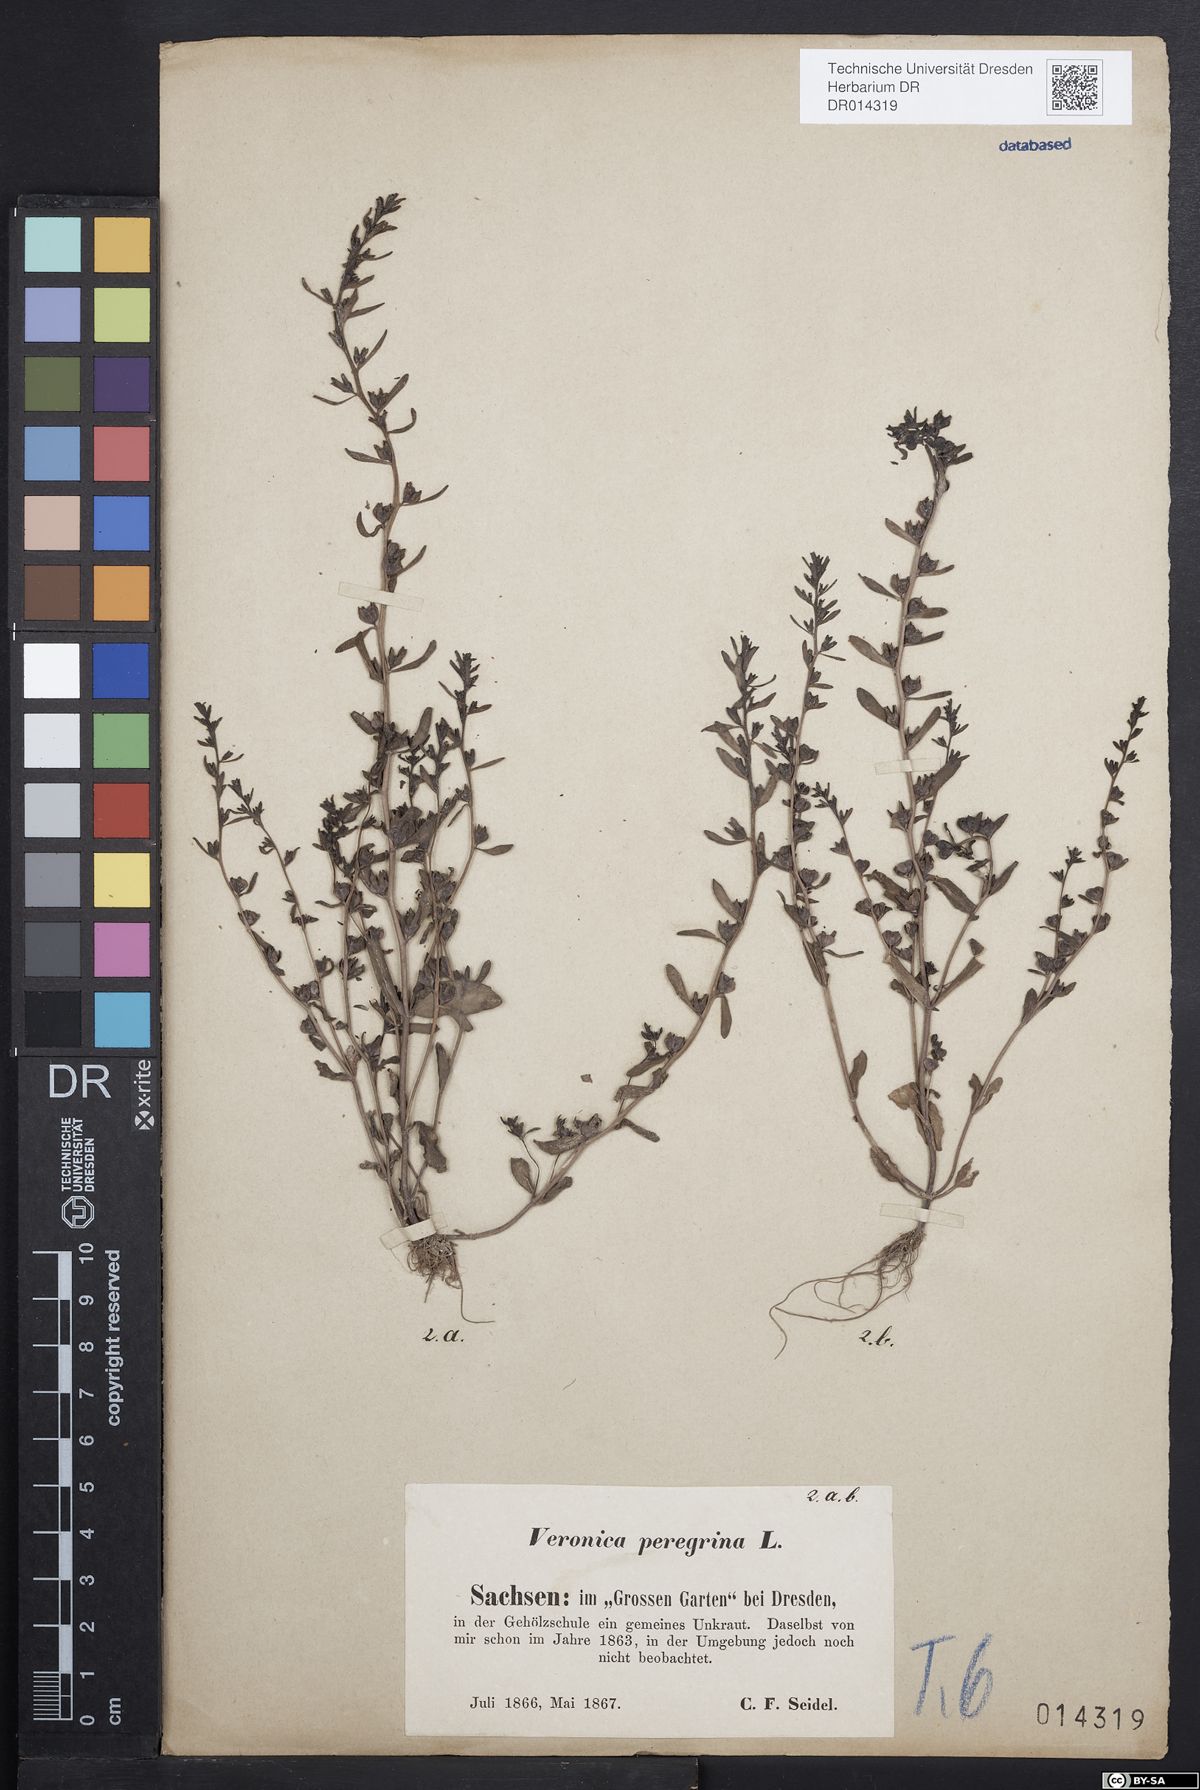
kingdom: Plantae
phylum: Tracheophyta
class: Magnoliopsida
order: Lamiales
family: Plantaginaceae
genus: Veronica
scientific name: Veronica peregrina
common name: Neckweed
